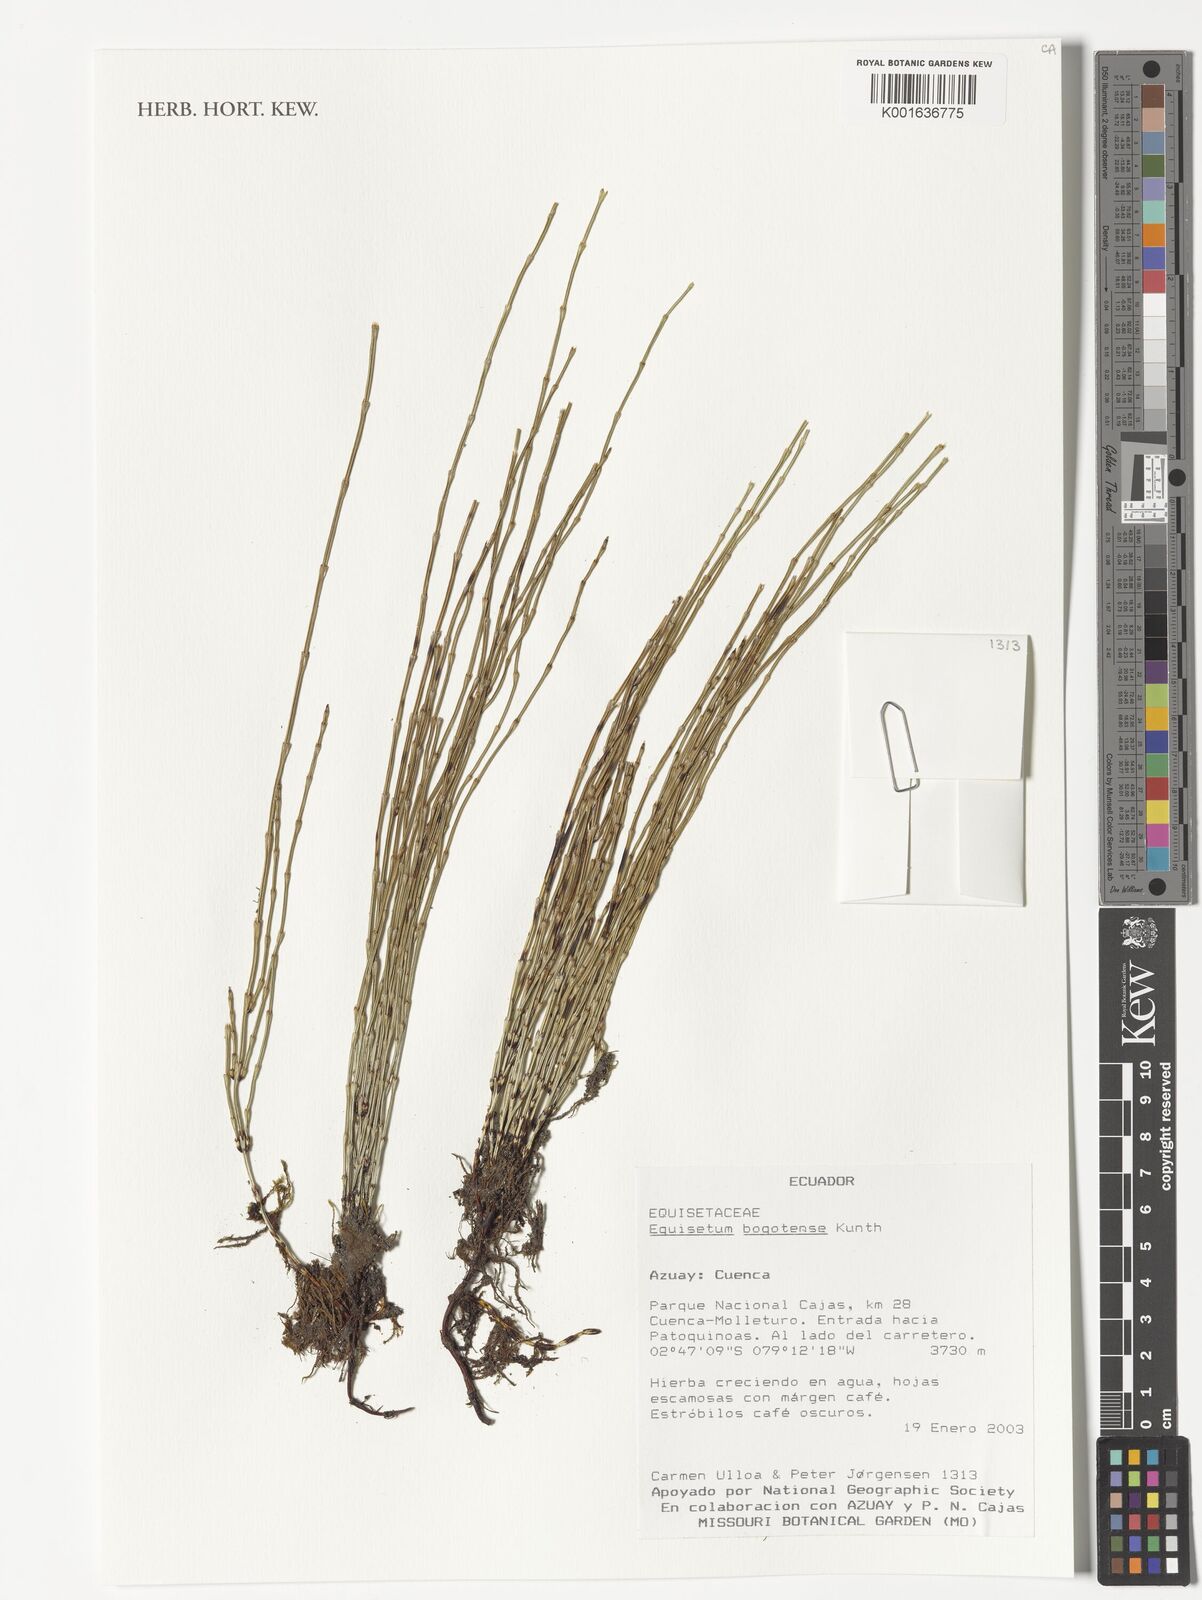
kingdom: Plantae
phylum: Tracheophyta
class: Polypodiopsida
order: Equisetales
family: Equisetaceae
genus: Equisetum
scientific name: Equisetum bogotense
